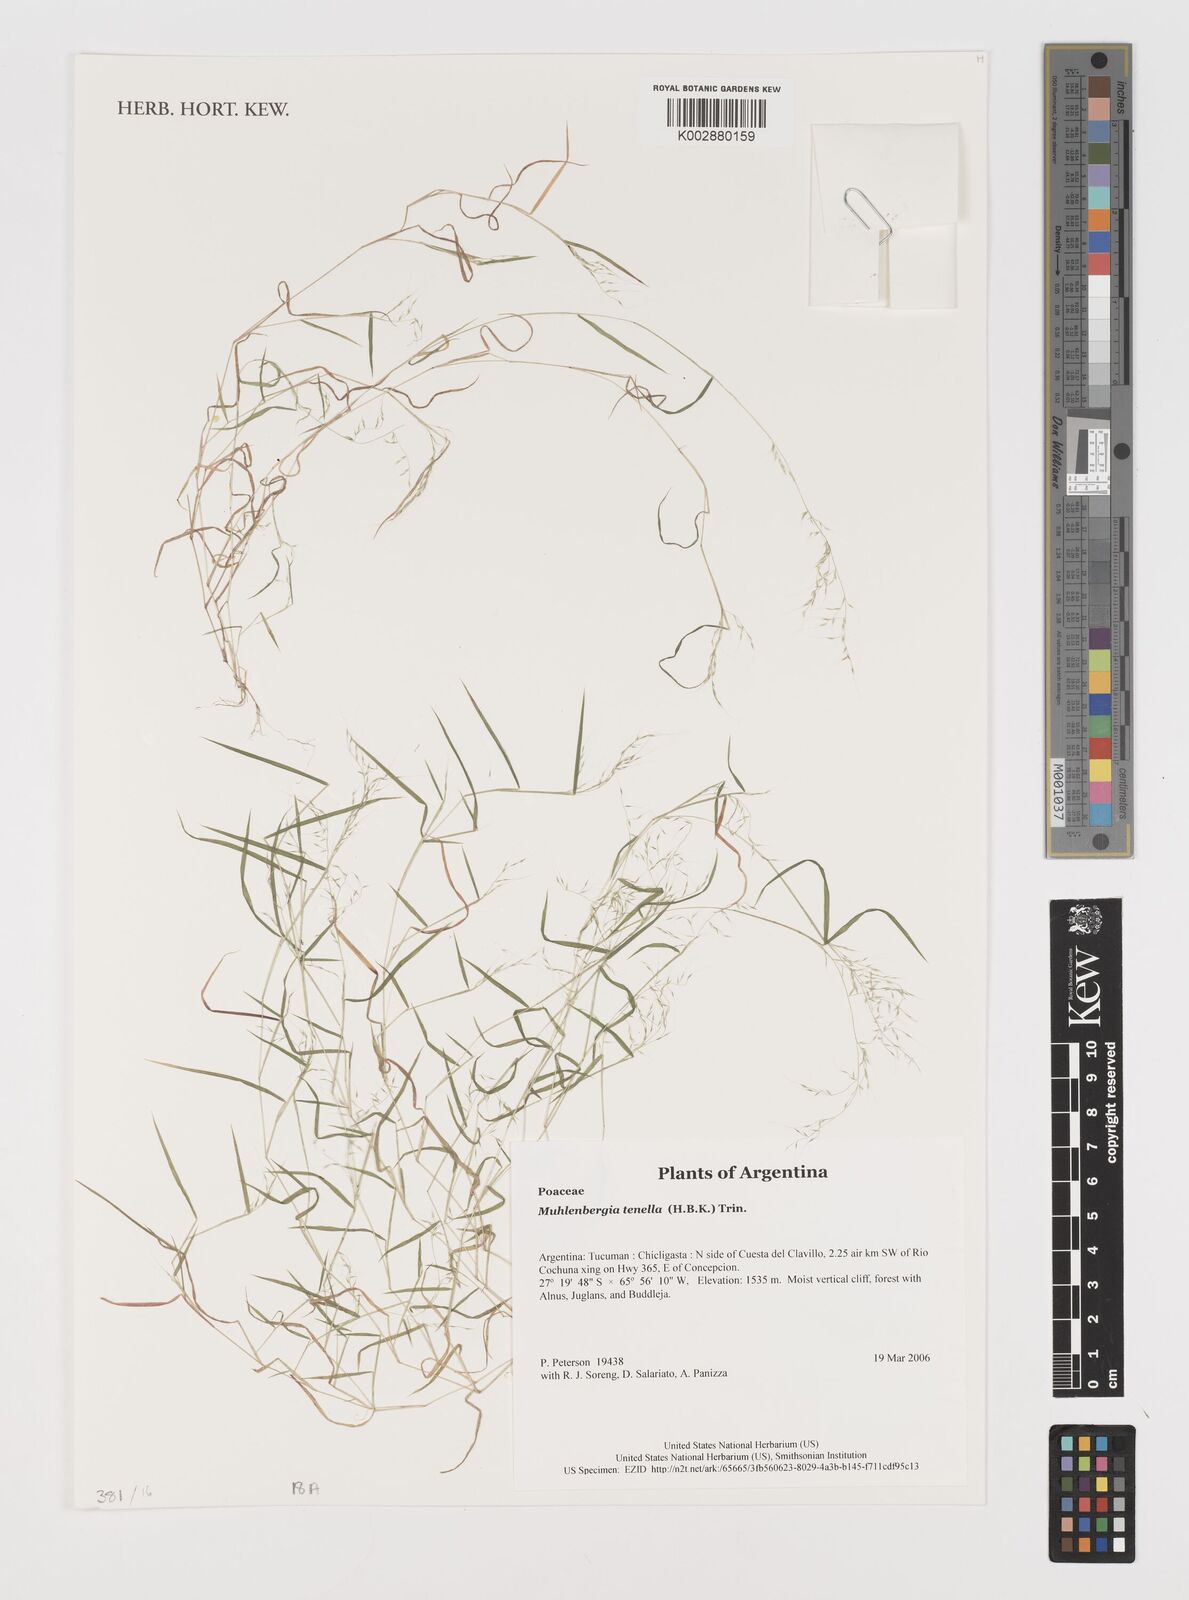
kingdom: Plantae
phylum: Tracheophyta
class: Liliopsida
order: Poales
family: Poaceae
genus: Muhlenbergia
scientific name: Muhlenbergia tenella
